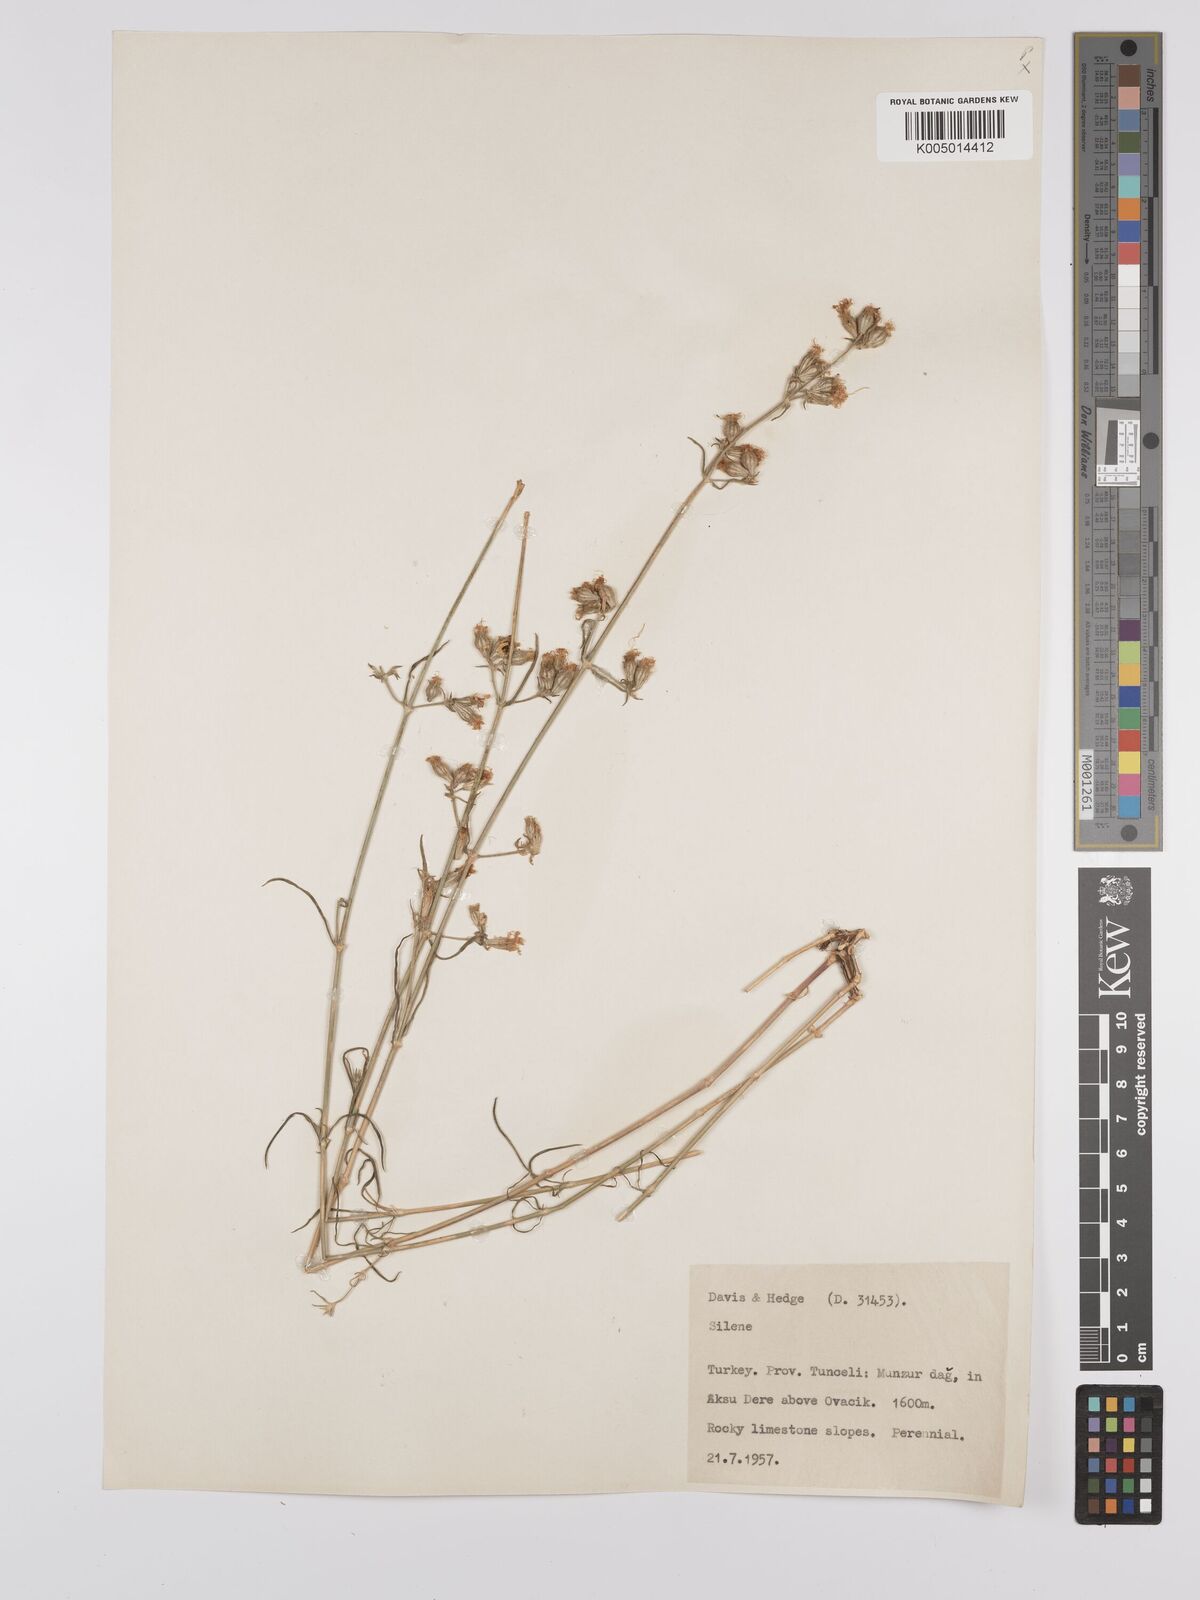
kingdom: Plantae
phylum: Tracheophyta
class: Magnoliopsida
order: Caryophyllales
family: Caryophyllaceae
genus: Silene
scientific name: Silene
